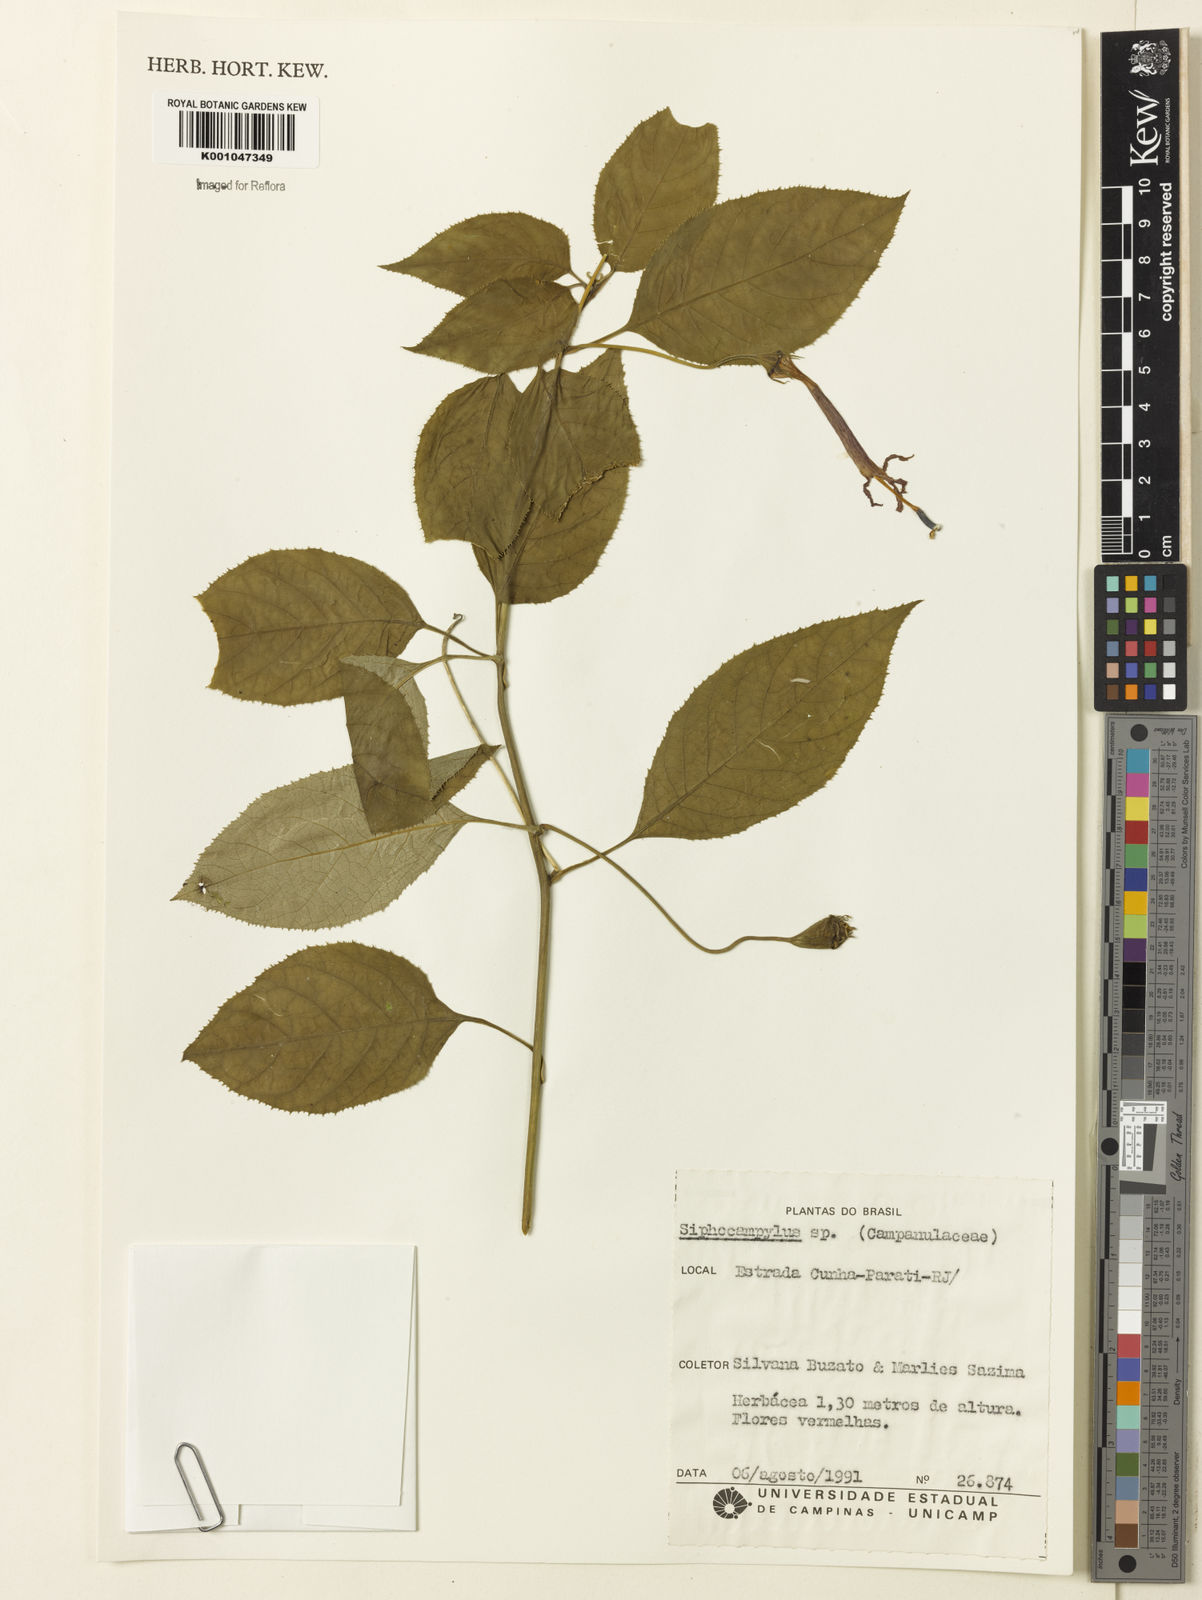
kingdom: Plantae
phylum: Tracheophyta
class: Magnoliopsida
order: Asterales
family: Campanulaceae
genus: Siphocampylus
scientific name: Siphocampylus
